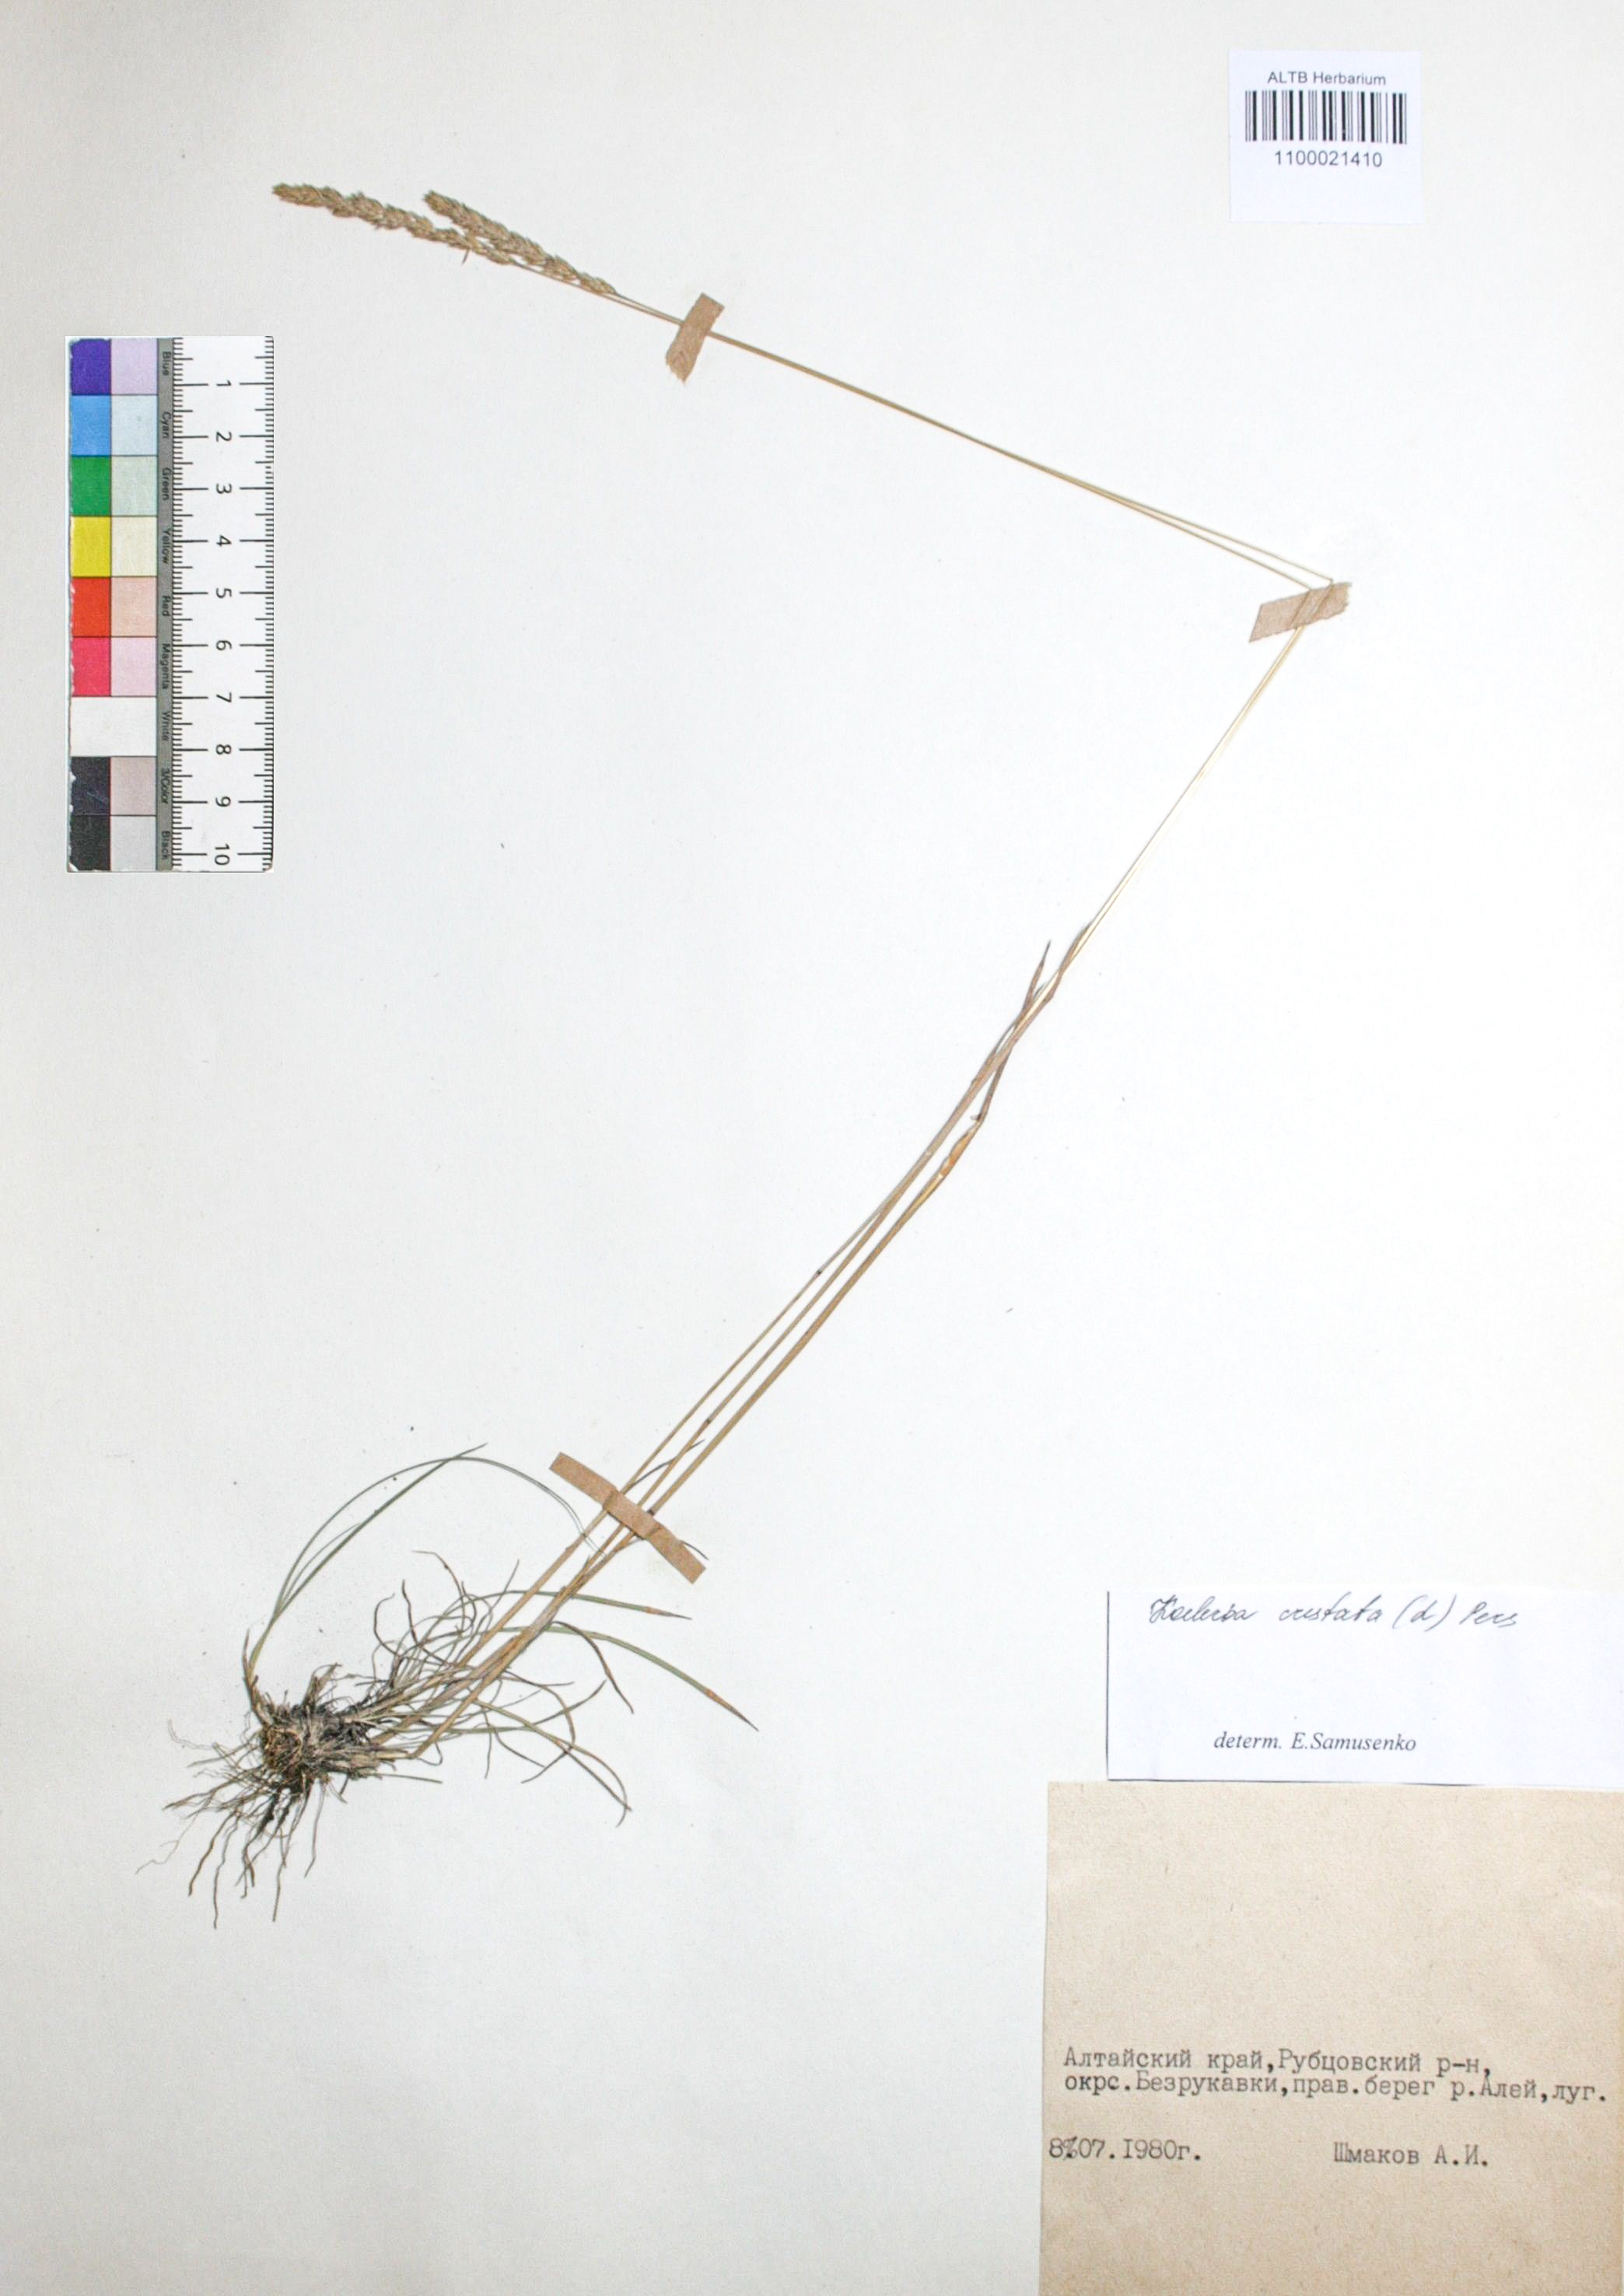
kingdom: Plantae
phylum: Tracheophyta
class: Liliopsida
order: Poales
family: Poaceae
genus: Koeleria
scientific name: Koeleria pyramidata
